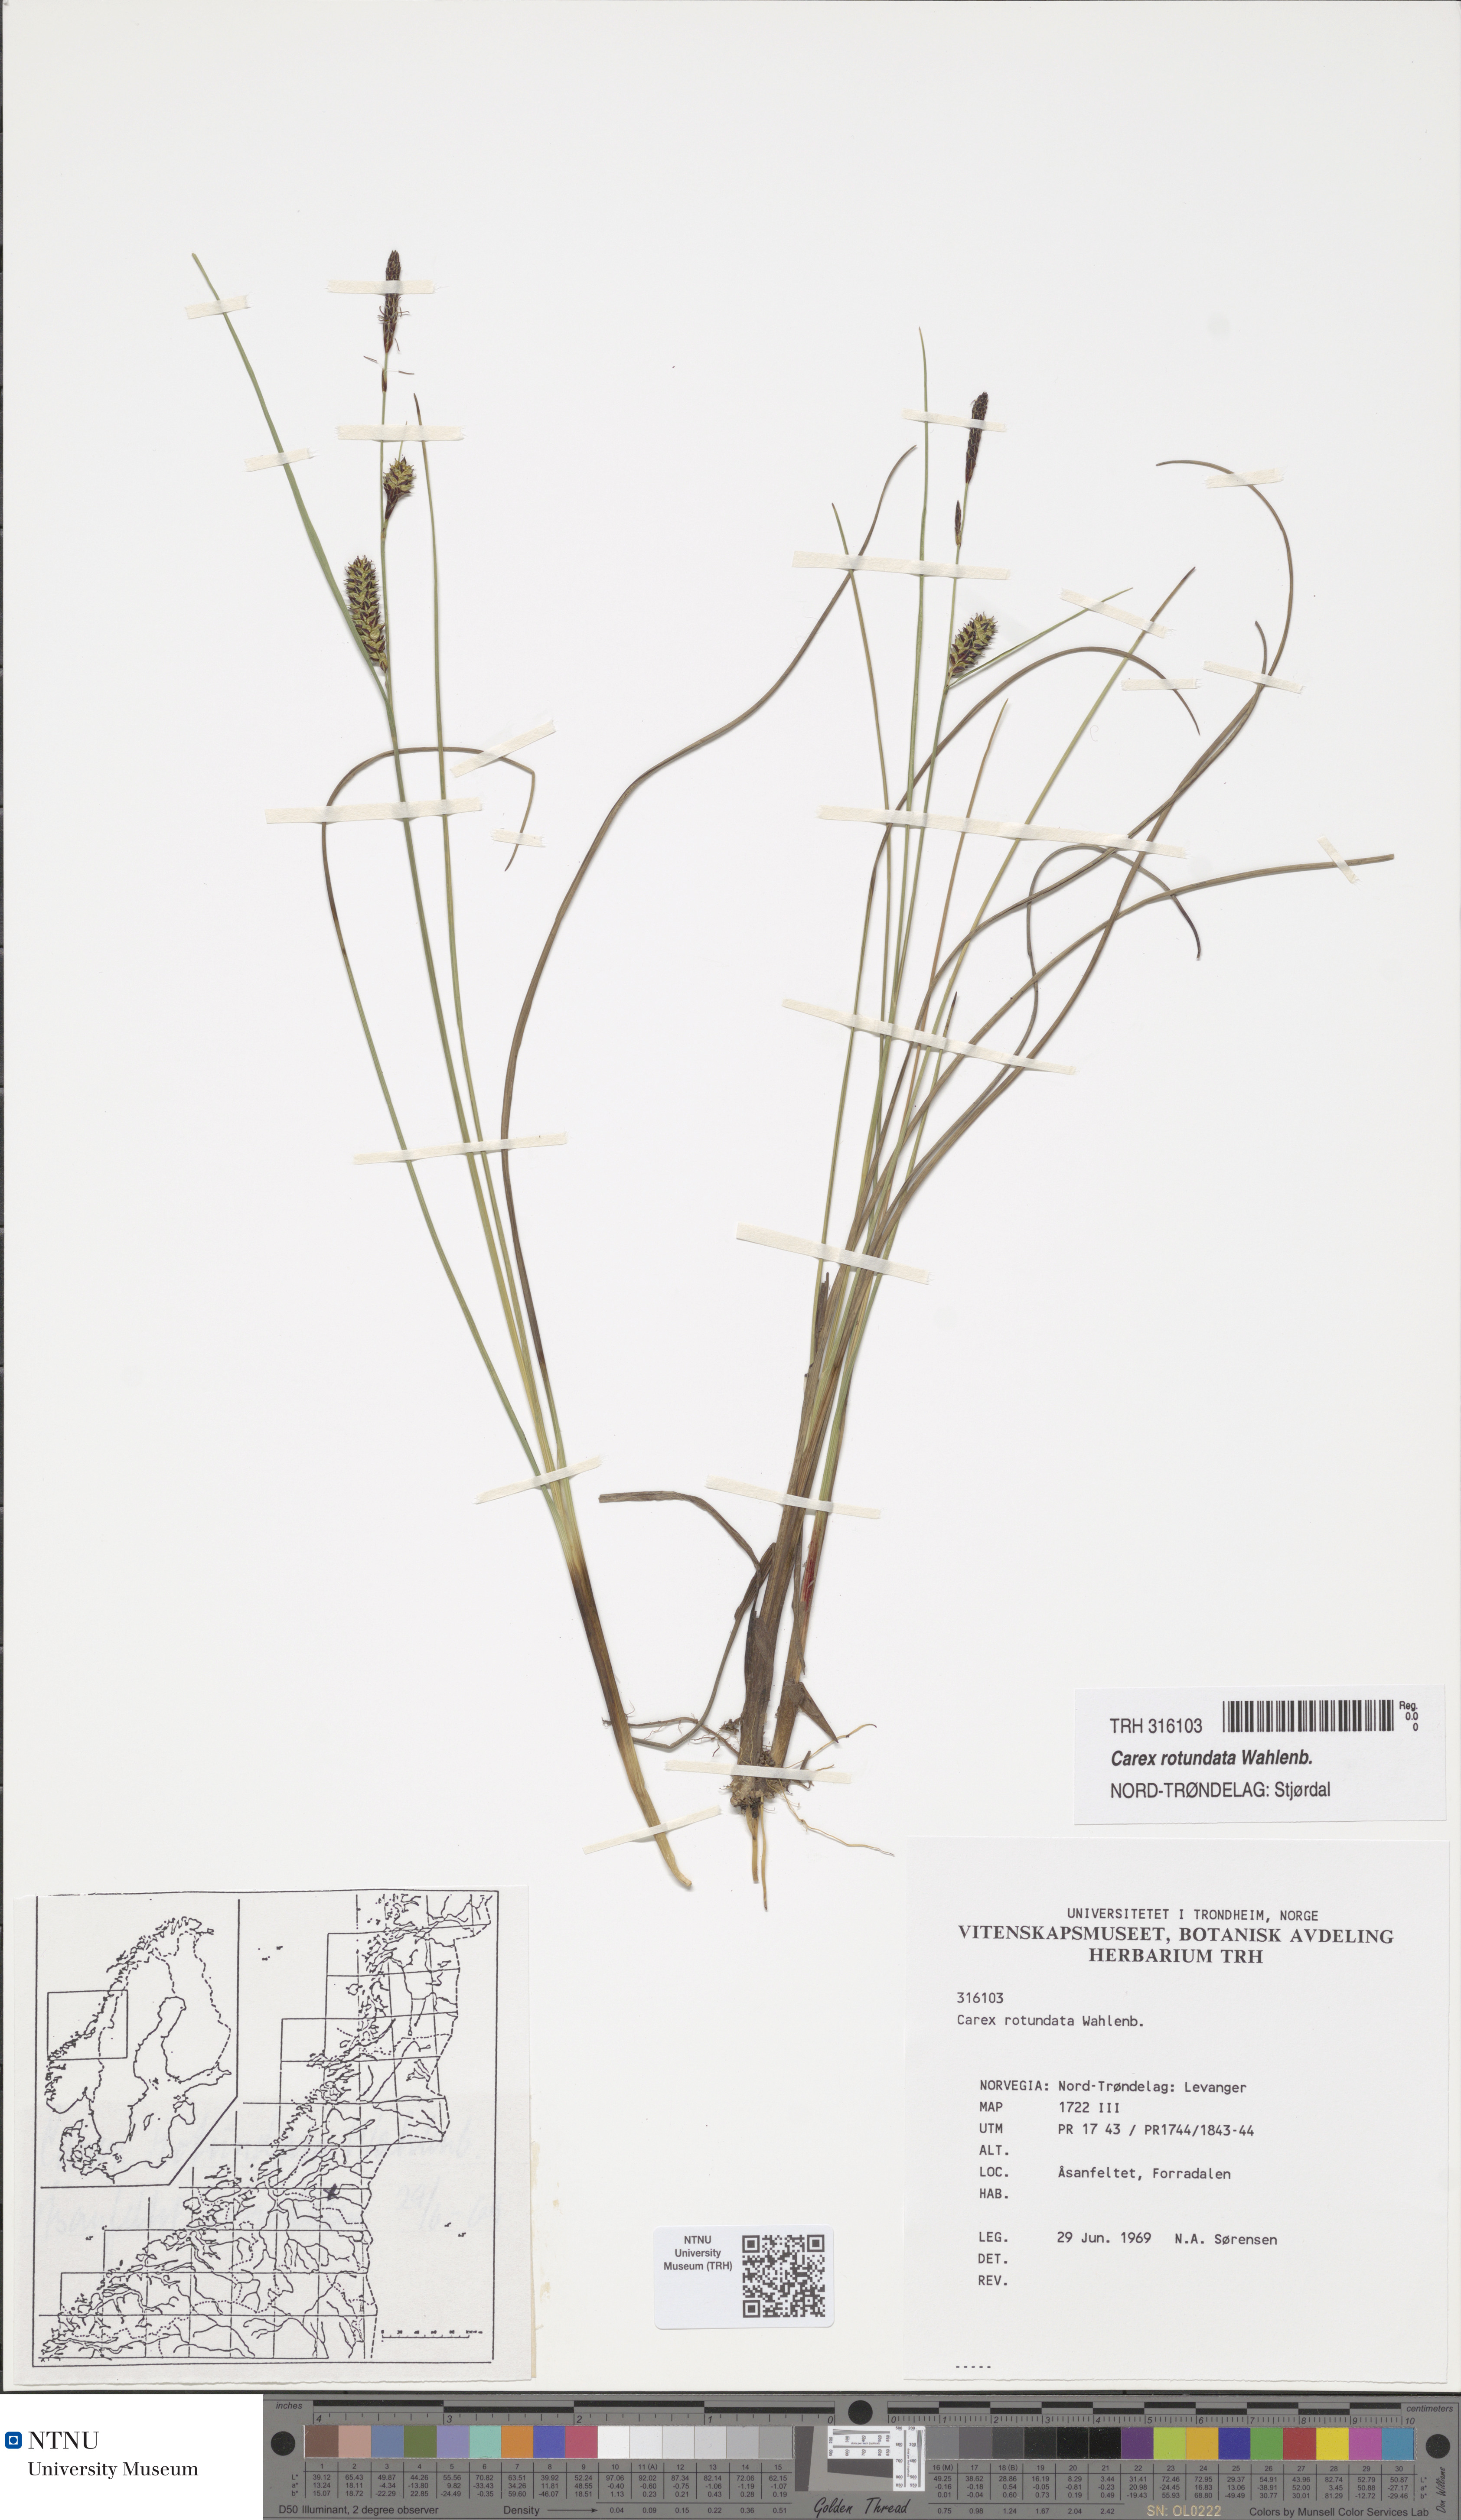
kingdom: Plantae
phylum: Tracheophyta
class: Liliopsida
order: Poales
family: Cyperaceae
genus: Carex
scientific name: Carex rotundata
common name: Round-fruited sedge
